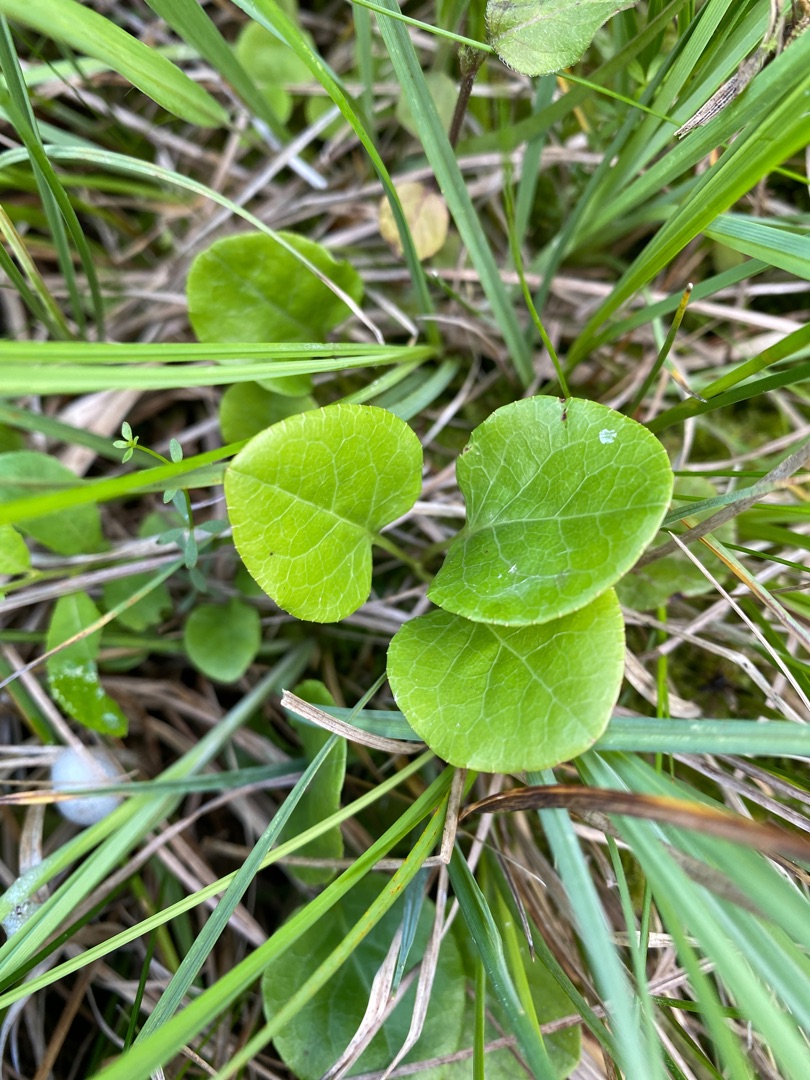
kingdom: Plantae
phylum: Tracheophyta
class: Magnoliopsida
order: Ericales
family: Ericaceae
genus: Pyrola
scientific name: Pyrola rotundifolia
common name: Mose-vintergrøn
